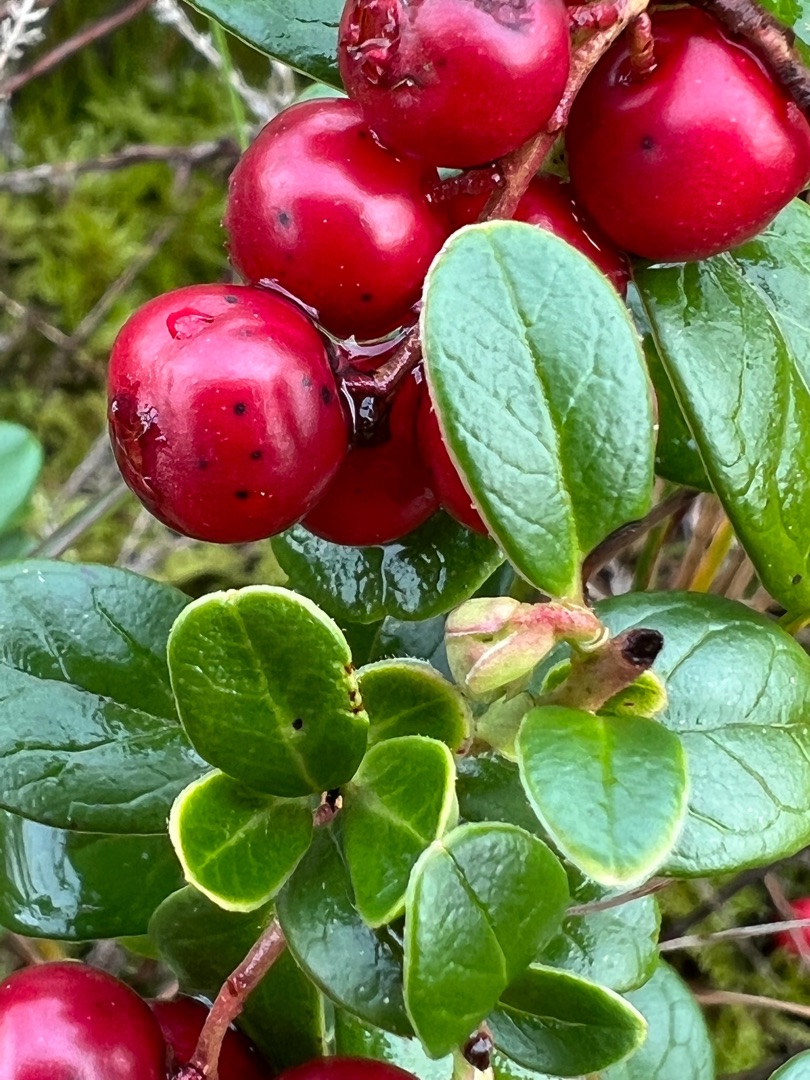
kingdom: Plantae
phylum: Tracheophyta
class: Magnoliopsida
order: Ericales
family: Ericaceae
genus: Vaccinium
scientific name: Vaccinium vitis-idaea
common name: Tyttebær
